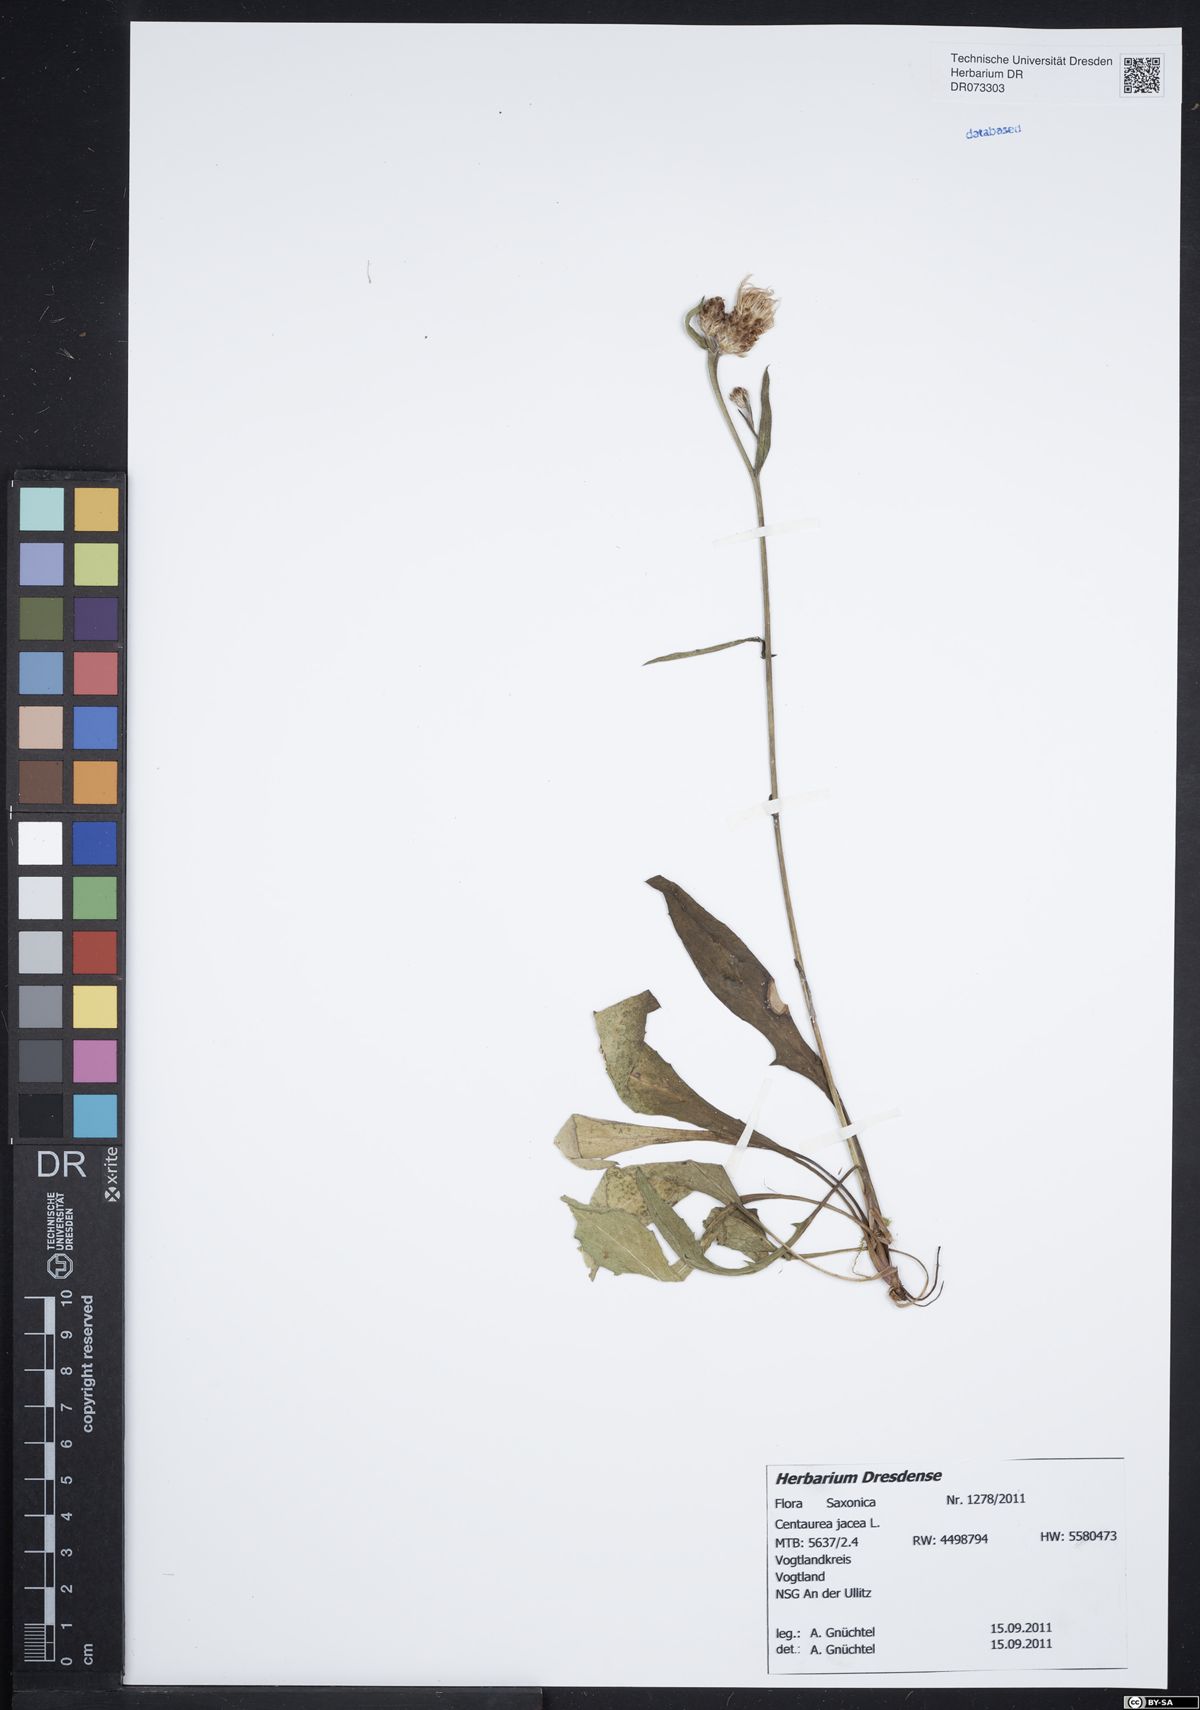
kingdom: Plantae
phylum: Tracheophyta
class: Magnoliopsida
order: Asterales
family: Asteraceae
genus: Centaurea
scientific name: Centaurea jacea
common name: Brown knapweed
